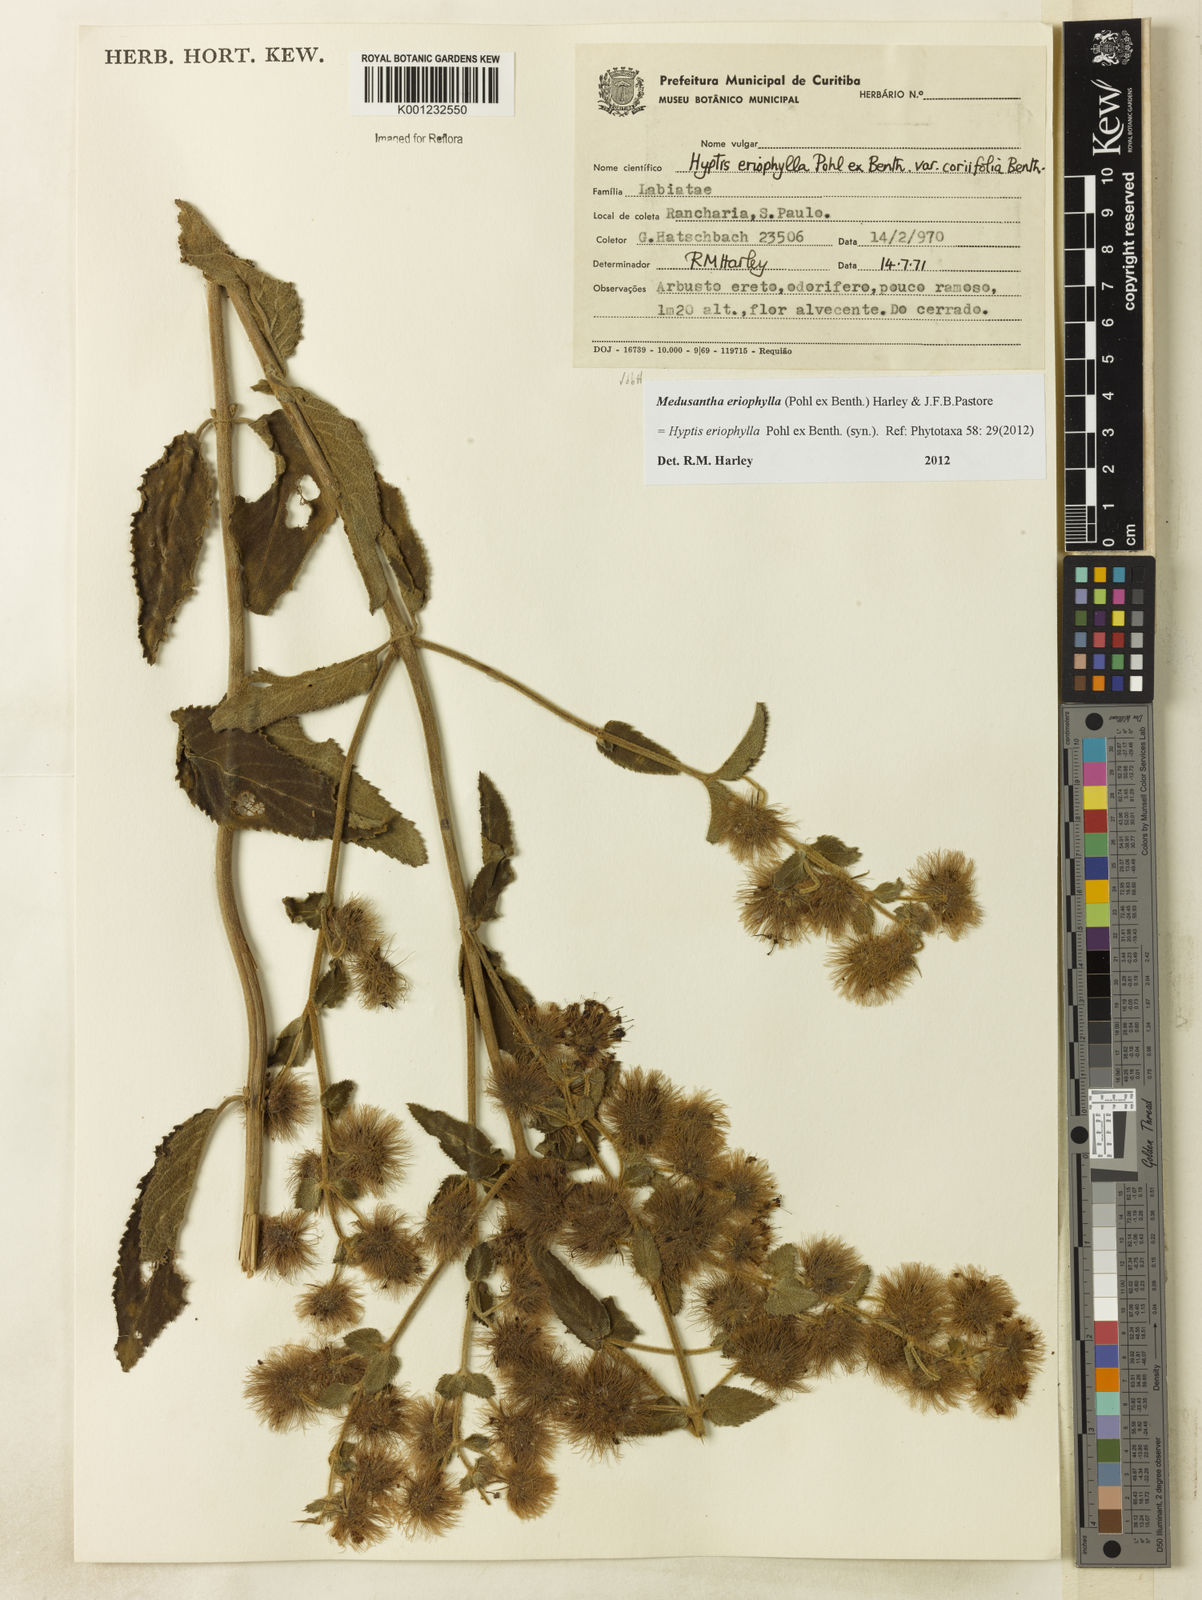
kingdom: Plantae
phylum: Tracheophyta
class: Magnoliopsida
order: Lamiales
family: Lamiaceae
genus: Medusantha
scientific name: Medusantha eriophylla
